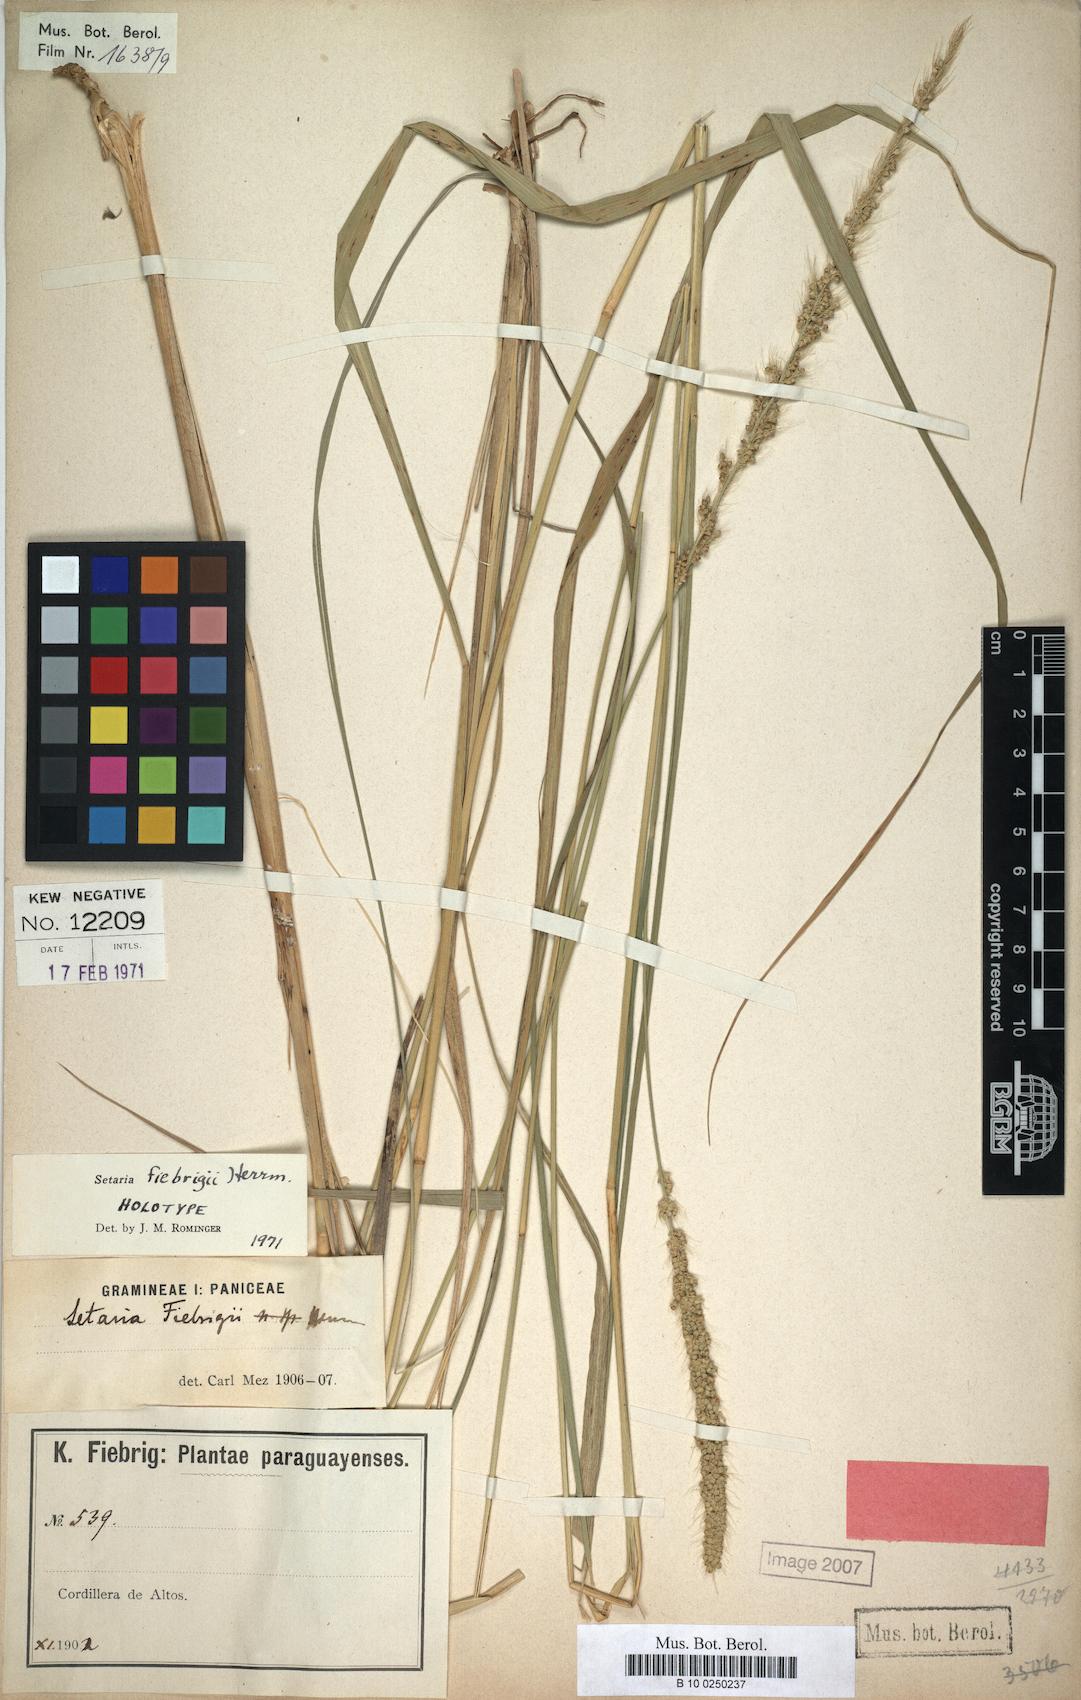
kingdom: Plantae
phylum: Tracheophyta
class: Liliopsida
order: Poales
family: Poaceae
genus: Setaria
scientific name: Setaria fiebrigii
